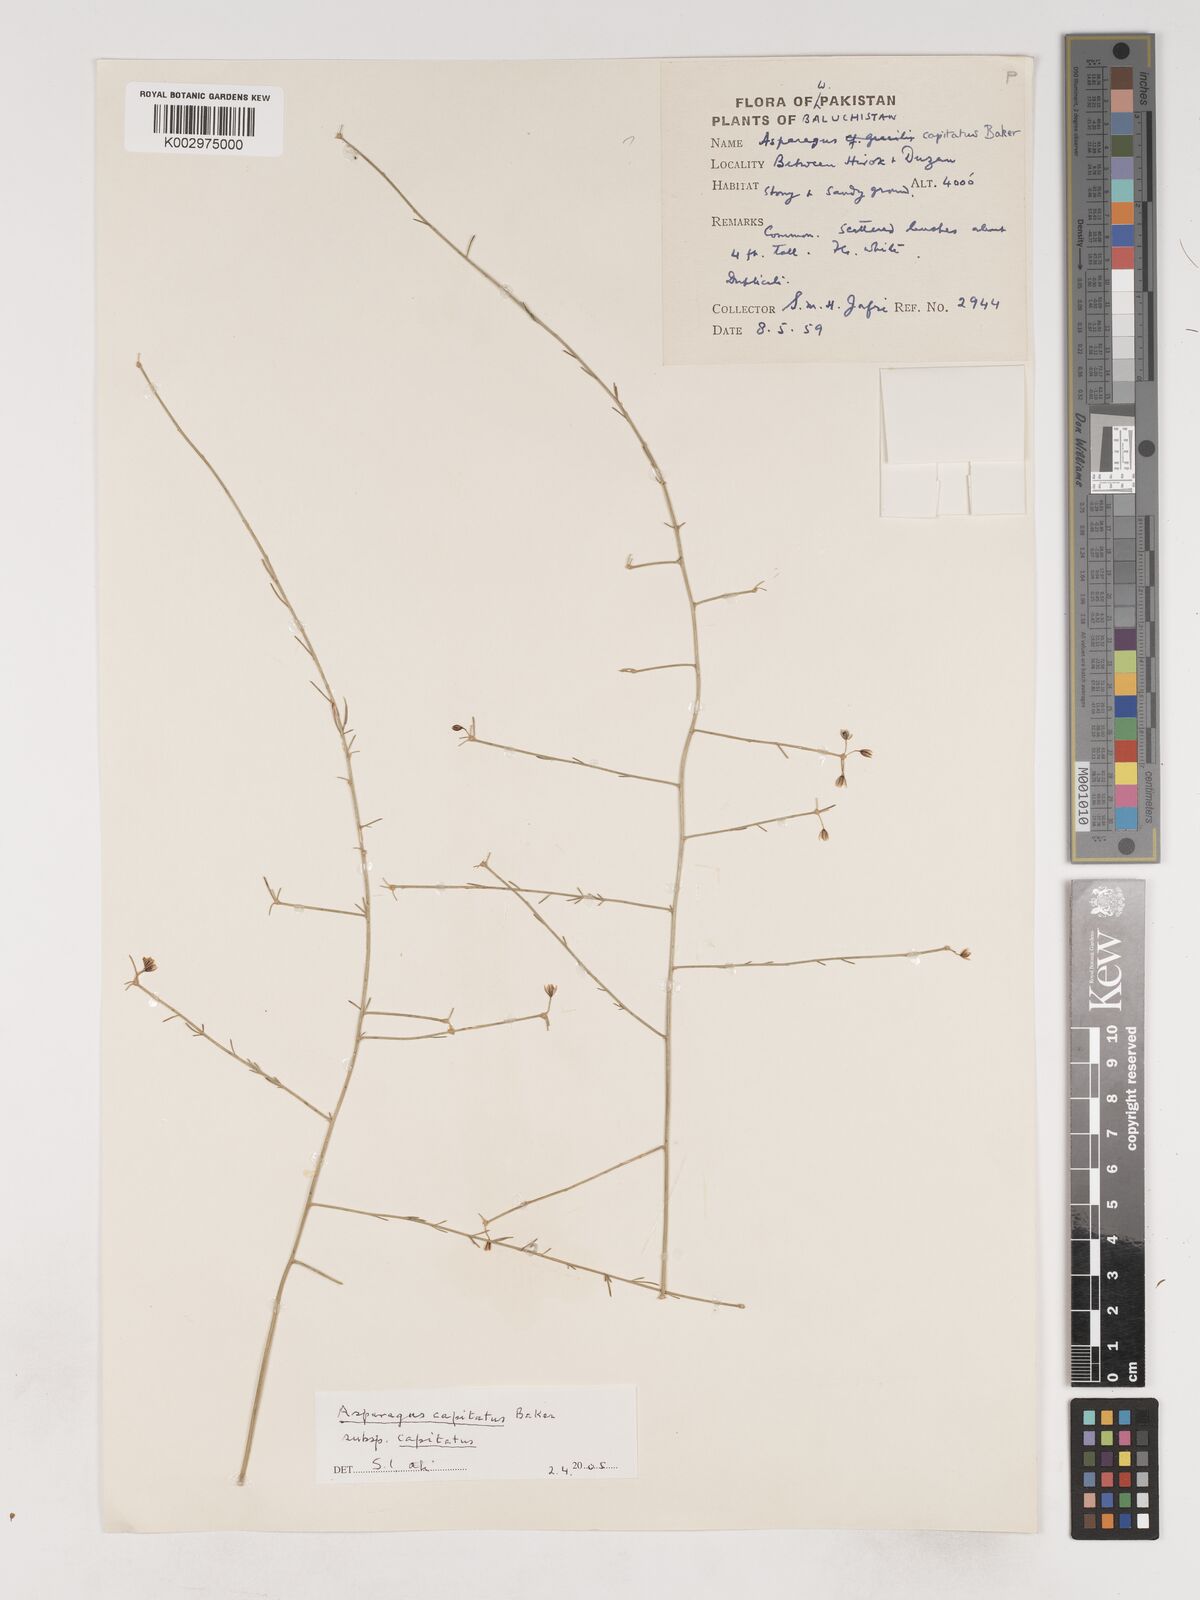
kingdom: Plantae
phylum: Tracheophyta
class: Liliopsida
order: Asparagales
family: Asparagaceae
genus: Asparagus
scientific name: Asparagus capitatus
